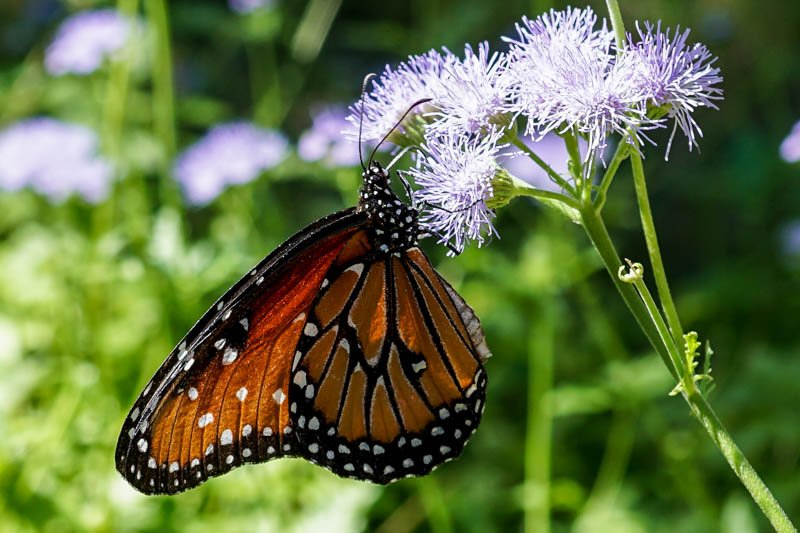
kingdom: Animalia
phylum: Arthropoda
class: Insecta
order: Lepidoptera
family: Nymphalidae
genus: Danaus
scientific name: Danaus gilippus
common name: Queen
